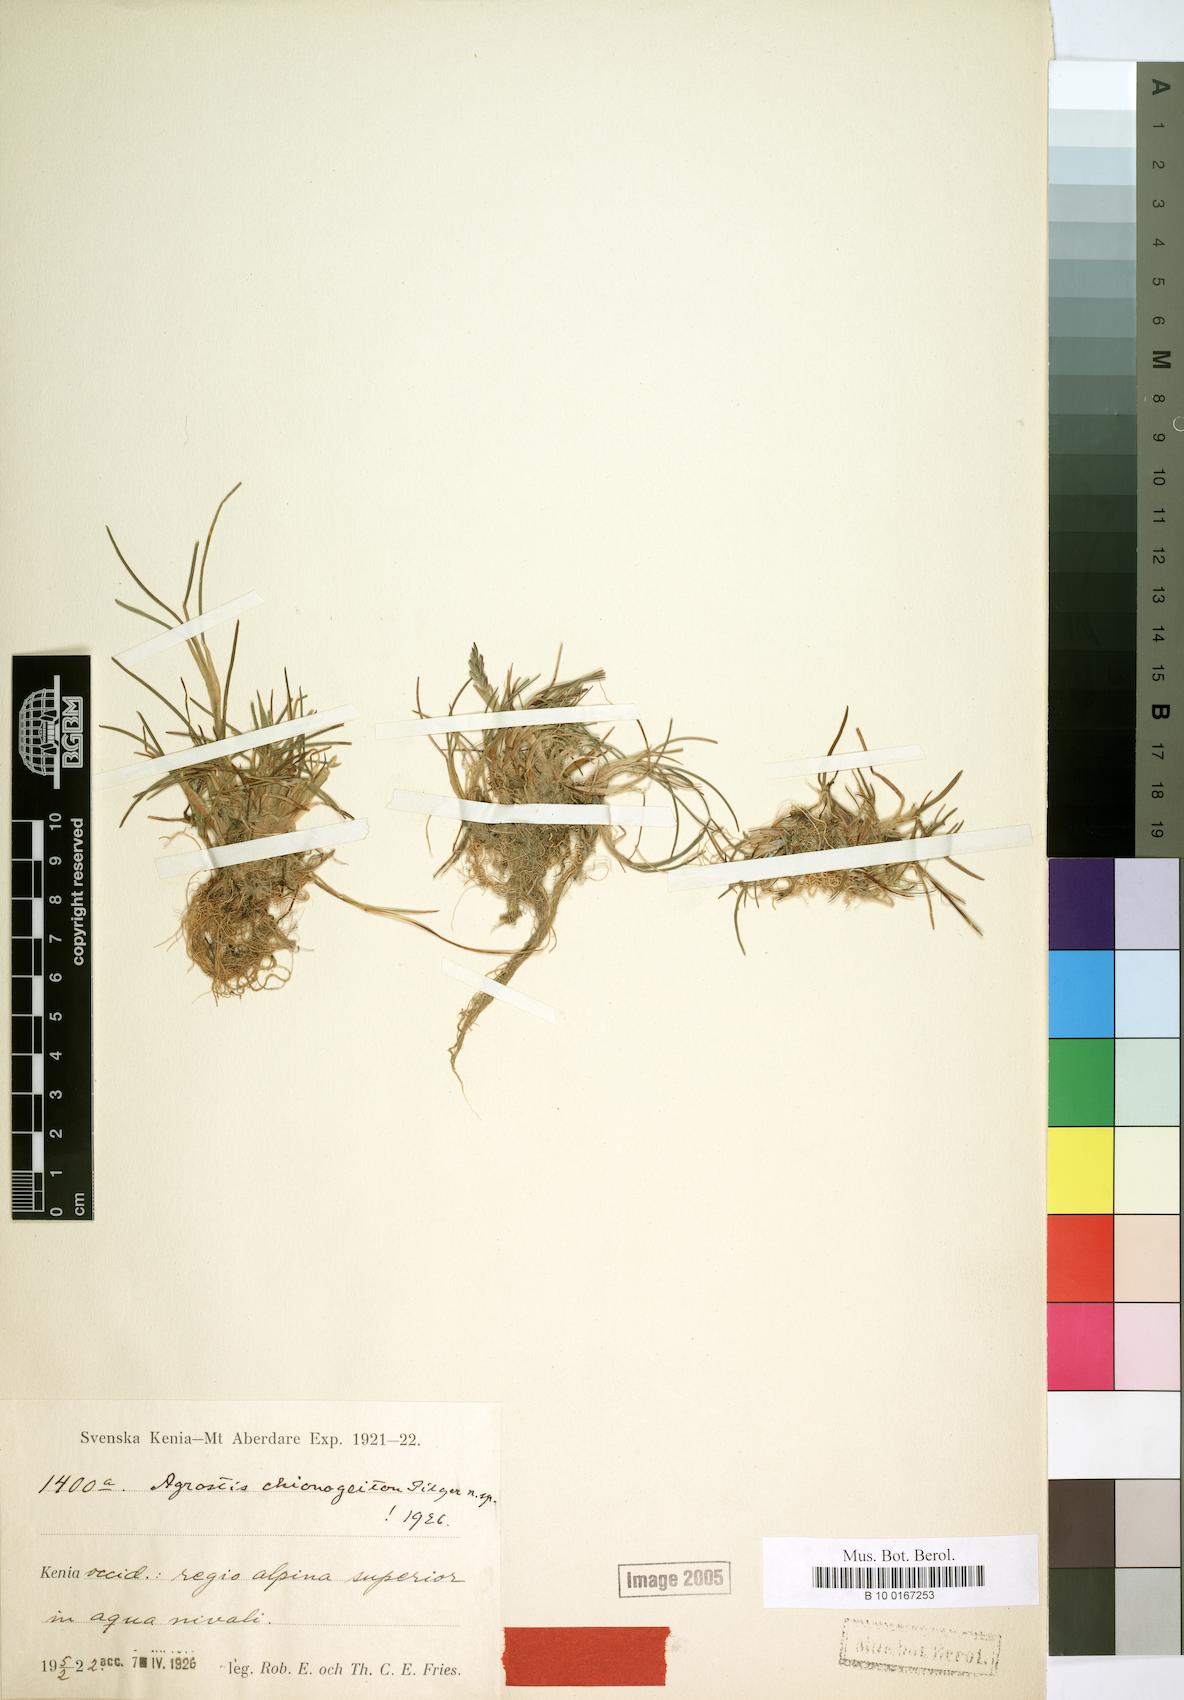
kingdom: Plantae
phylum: Tracheophyta
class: Liliopsida
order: Poales
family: Poaceae
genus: Colpodium
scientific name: Colpodium chionogeiton
